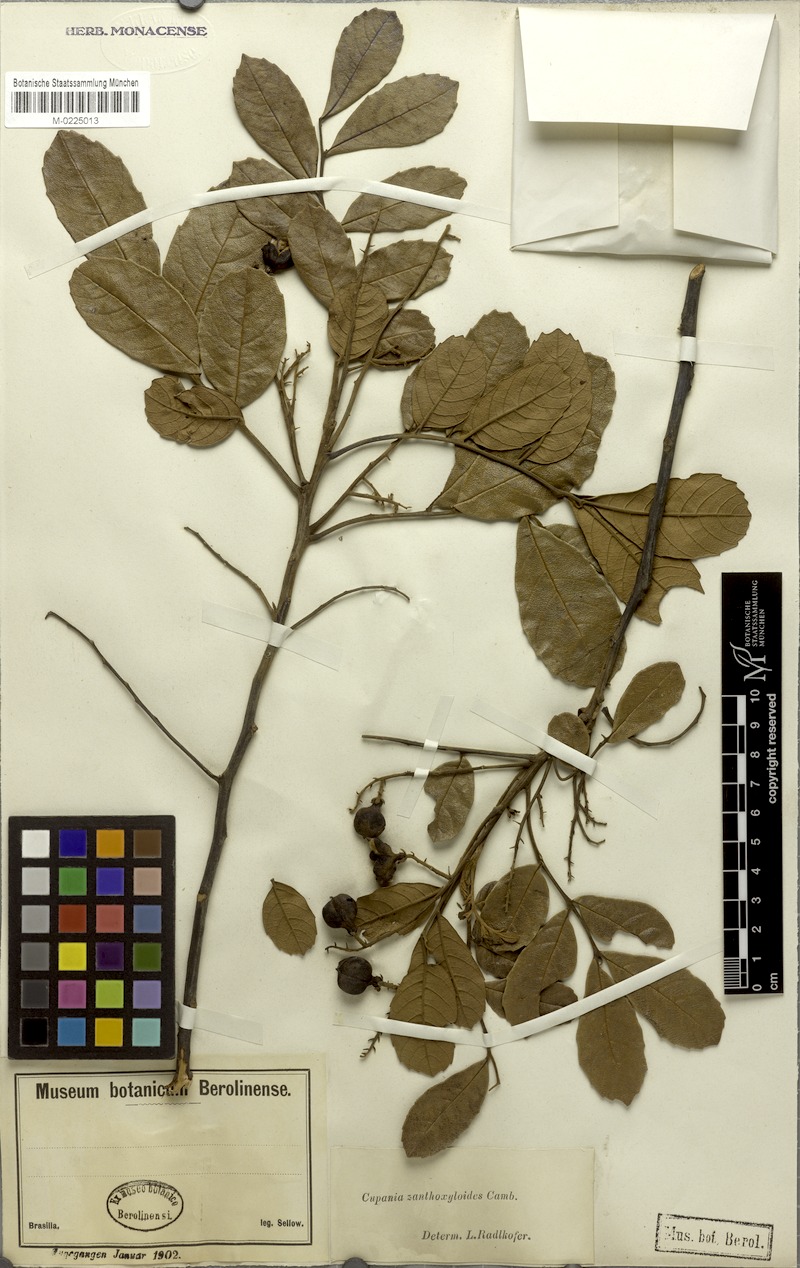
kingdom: Plantae
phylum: Tracheophyta
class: Magnoliopsida
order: Sapindales
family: Sapindaceae
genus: Cupania
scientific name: Cupania zanthoxyloides
